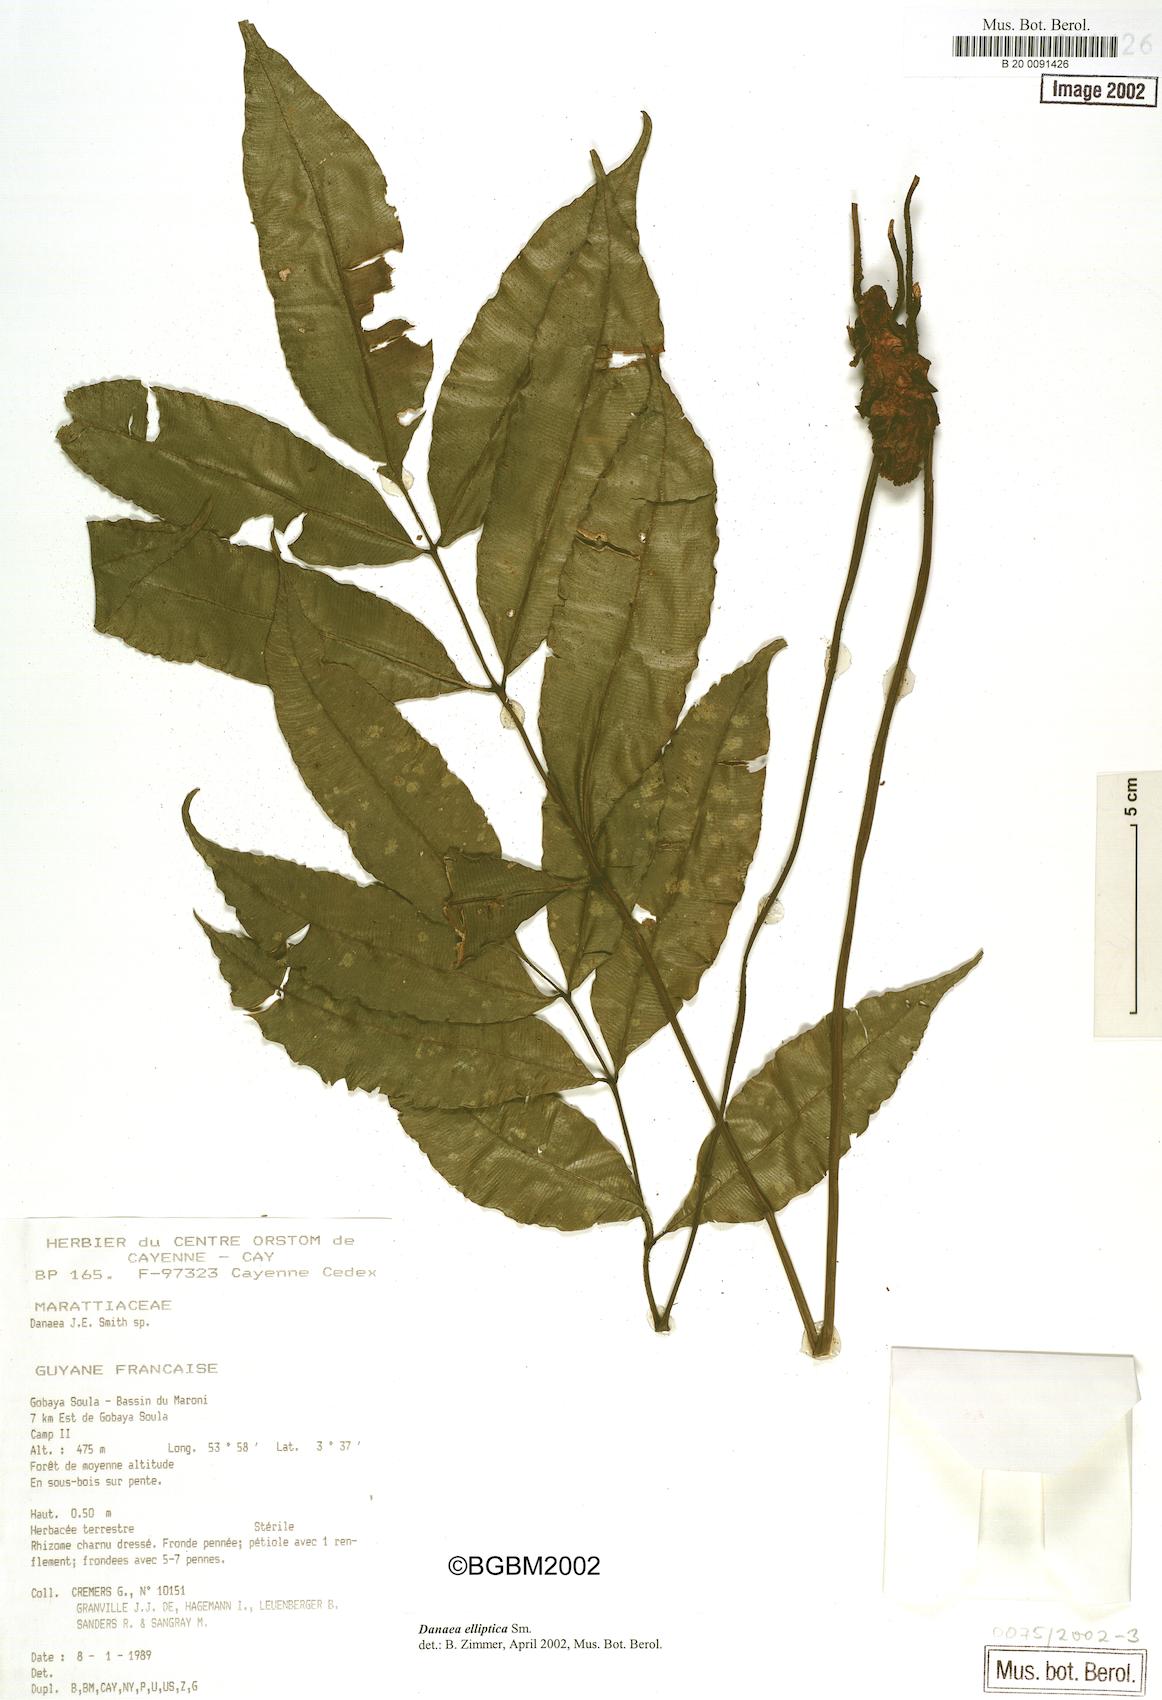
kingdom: Plantae
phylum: Tracheophyta
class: Polypodiopsida
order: Marattiales
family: Marattiaceae
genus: Danaea
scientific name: Danaea nodosa
